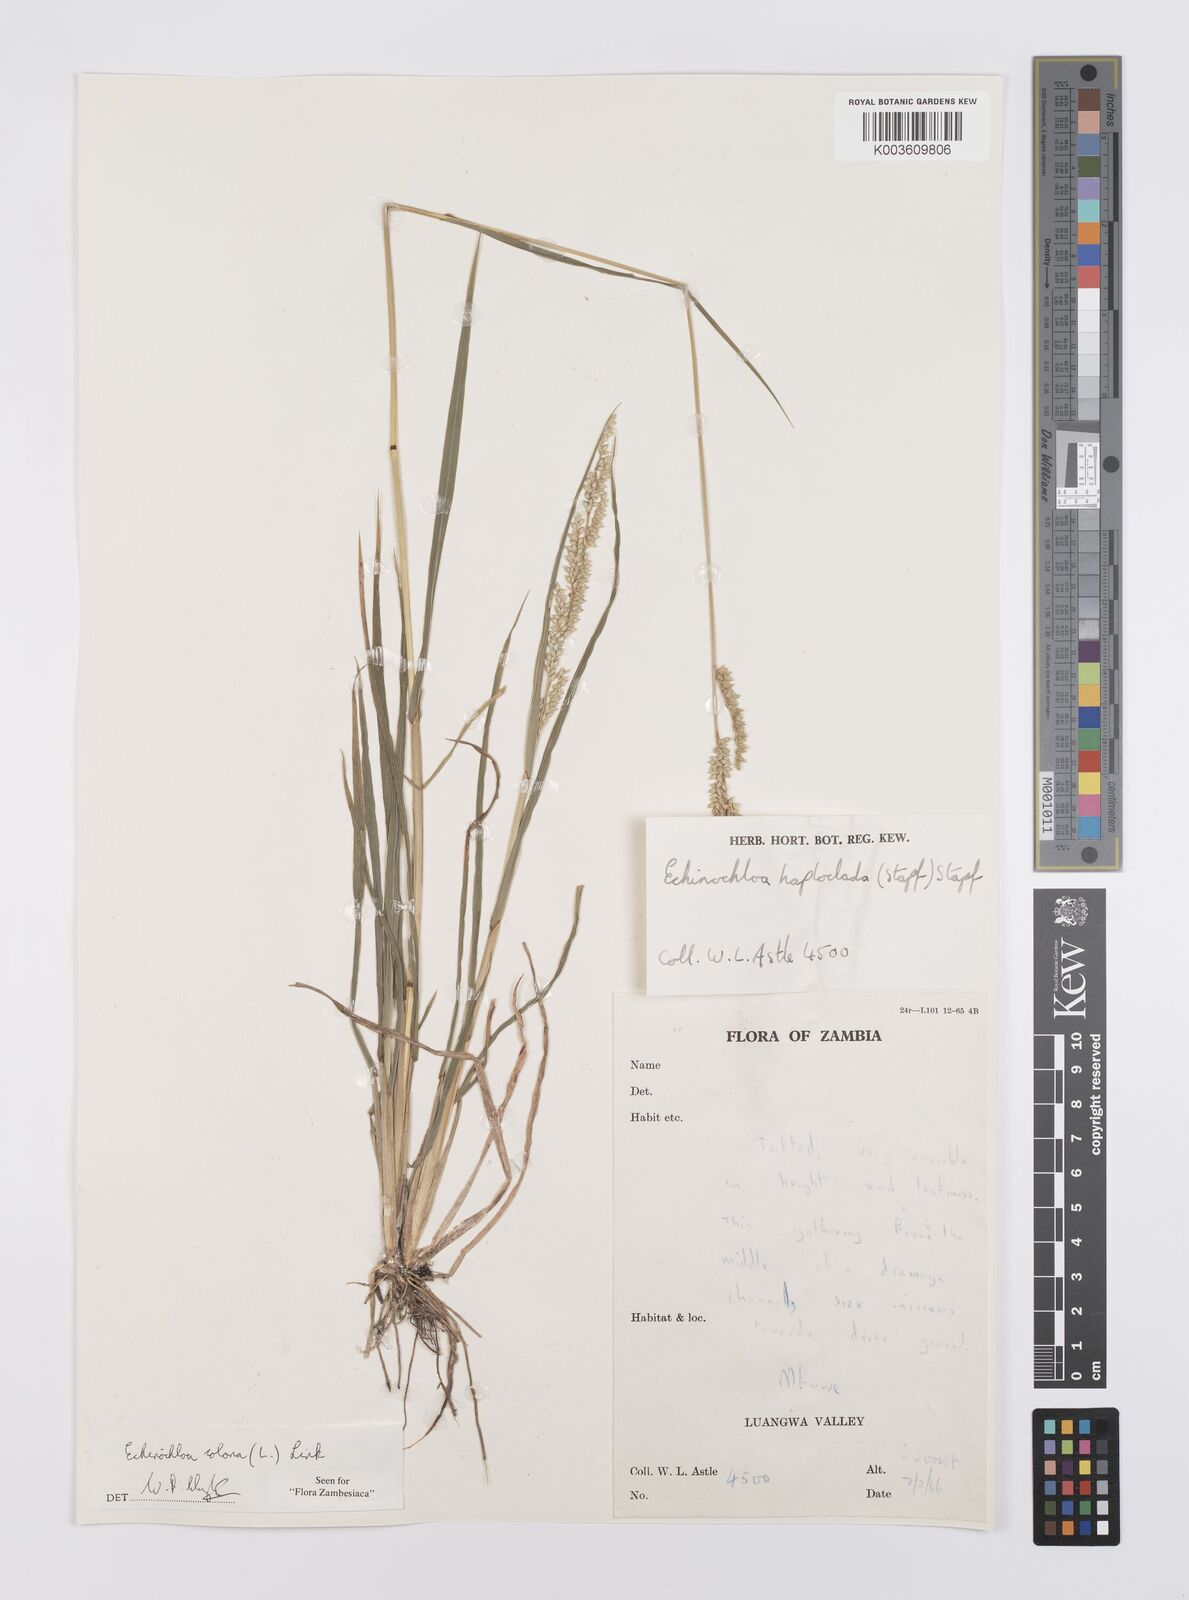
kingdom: Plantae
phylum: Tracheophyta
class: Liliopsida
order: Poales
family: Poaceae
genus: Echinochloa
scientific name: Echinochloa colonum
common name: Jungle rice
